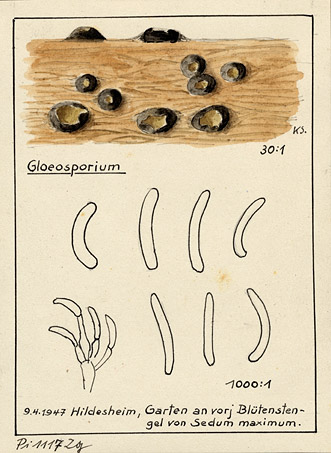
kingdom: Plantae
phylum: Tracheophyta
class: Magnoliopsida
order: Saxifragales
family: Crassulaceae
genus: Hylotelephium
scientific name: Hylotelephium maximum
